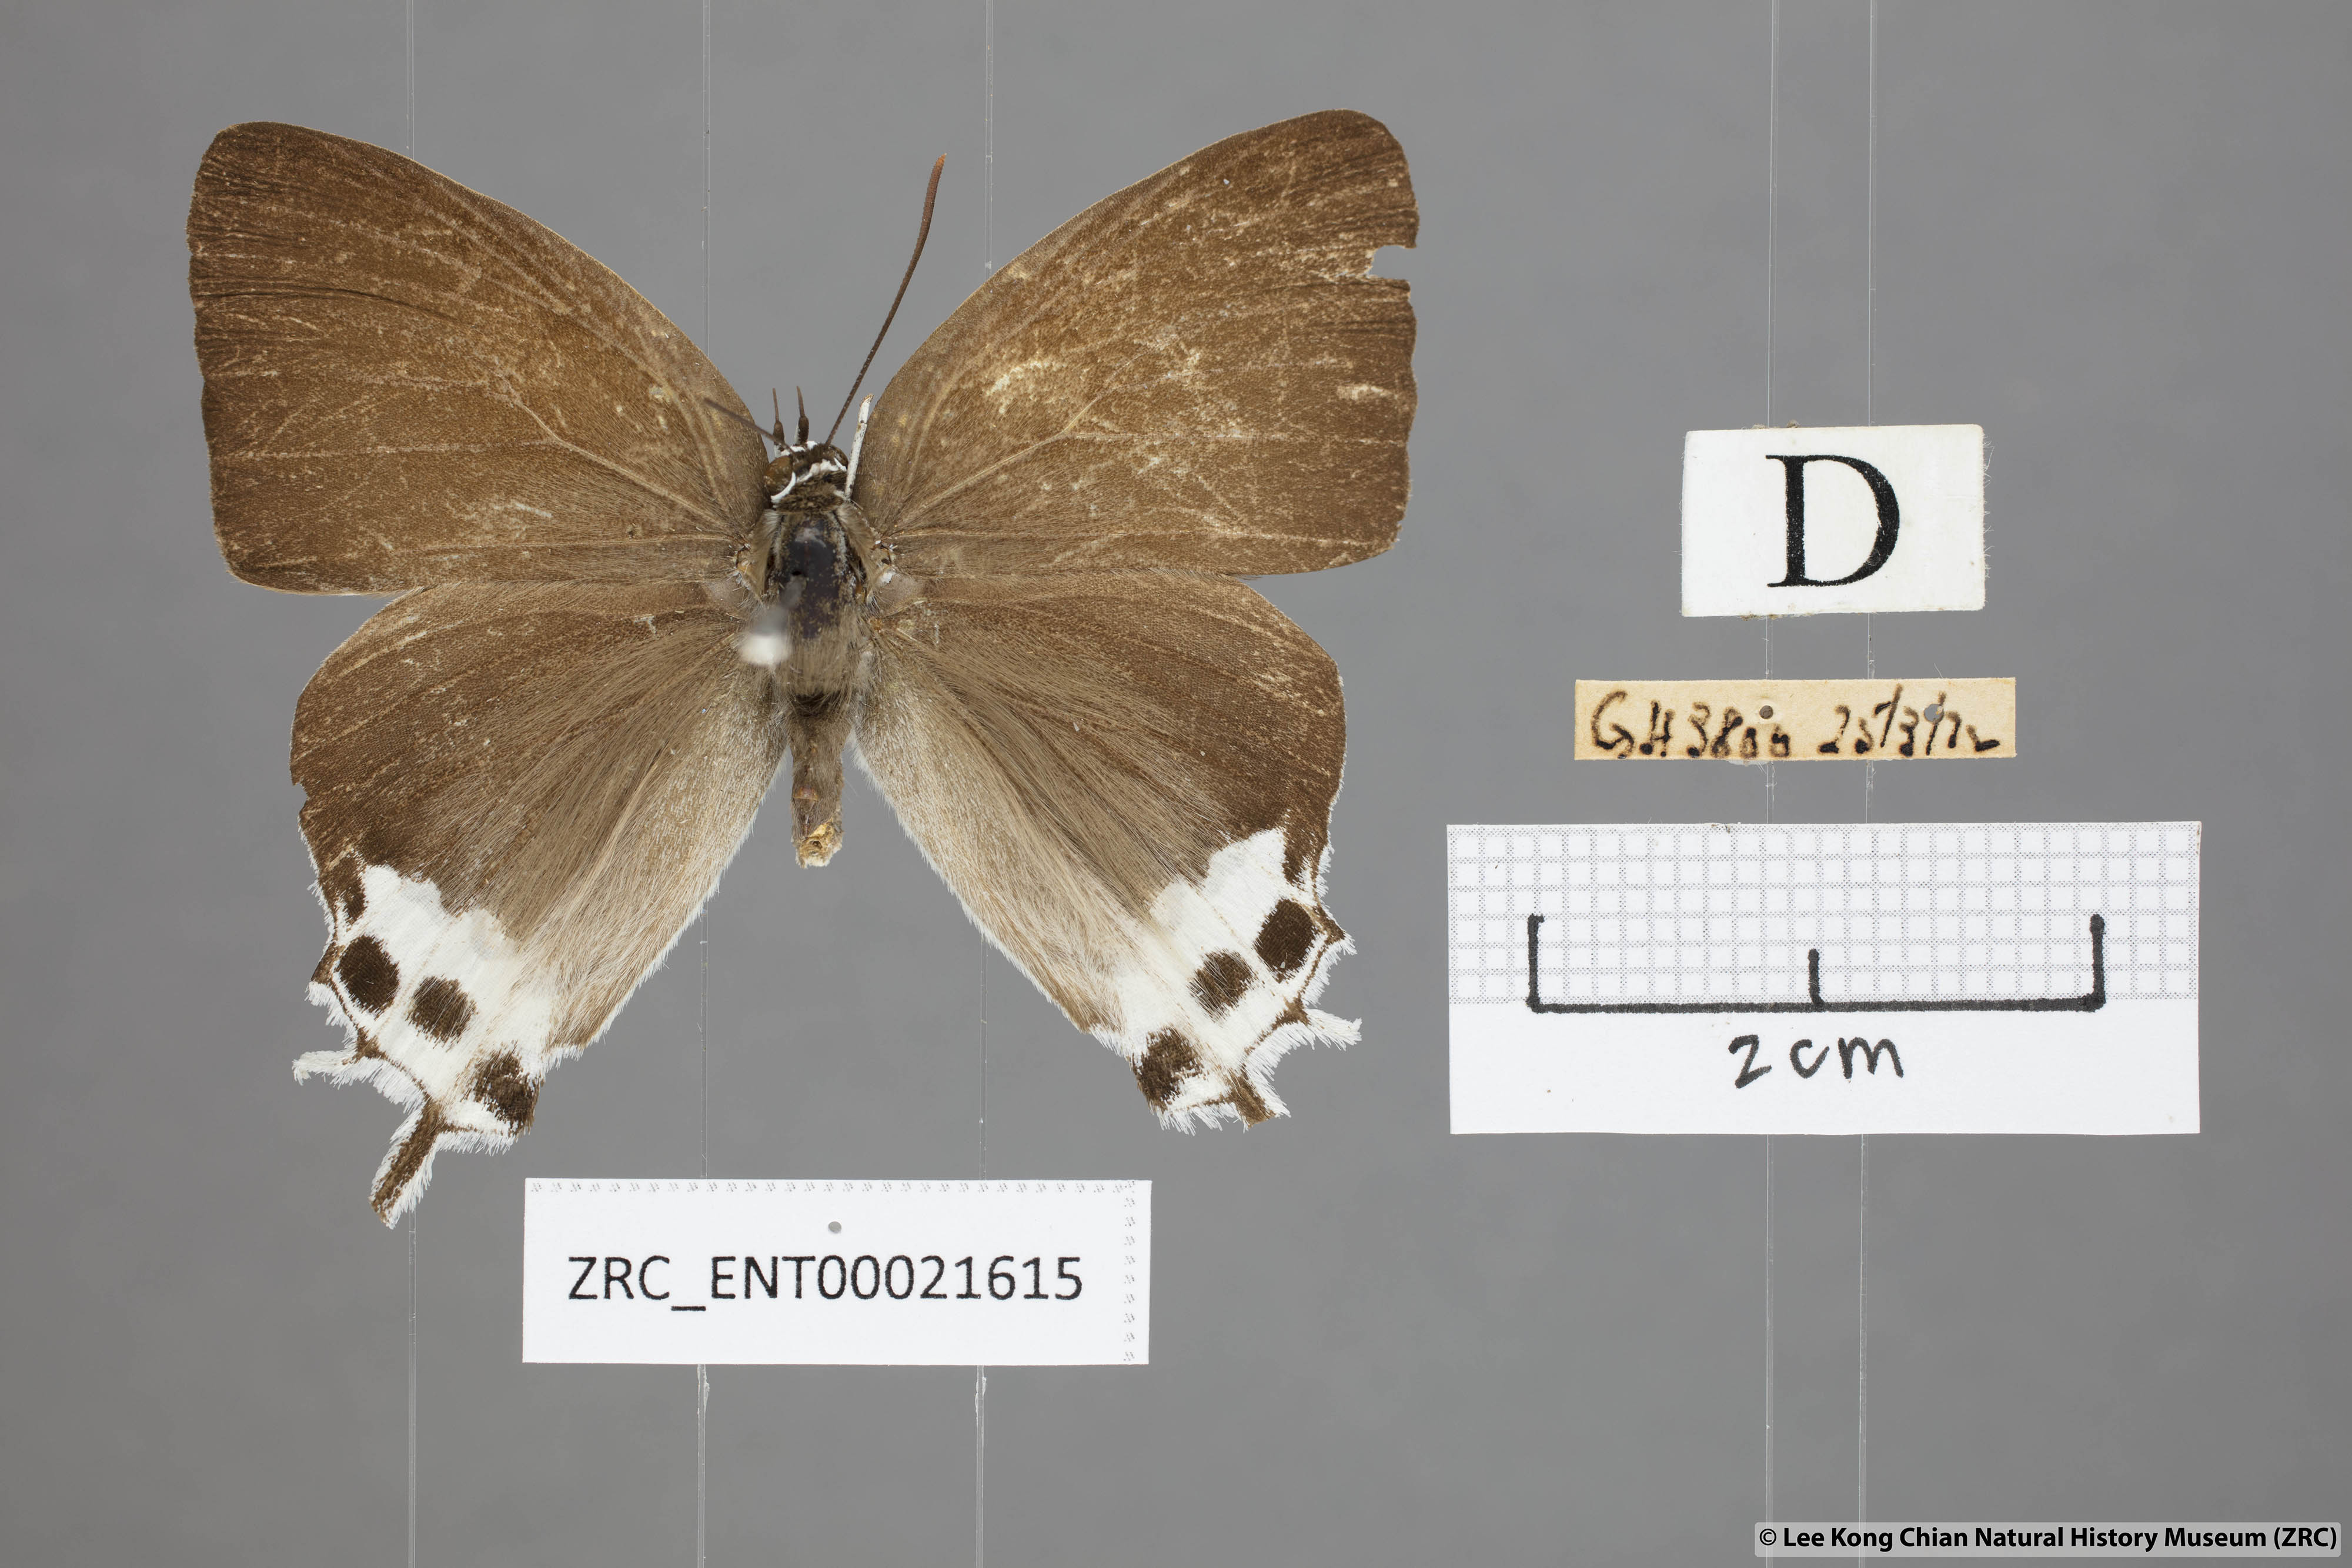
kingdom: Animalia
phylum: Arthropoda
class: Insecta
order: Lepidoptera
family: Lycaenidae
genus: Jacoona
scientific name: Jacoona anasuja
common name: Great imperial
